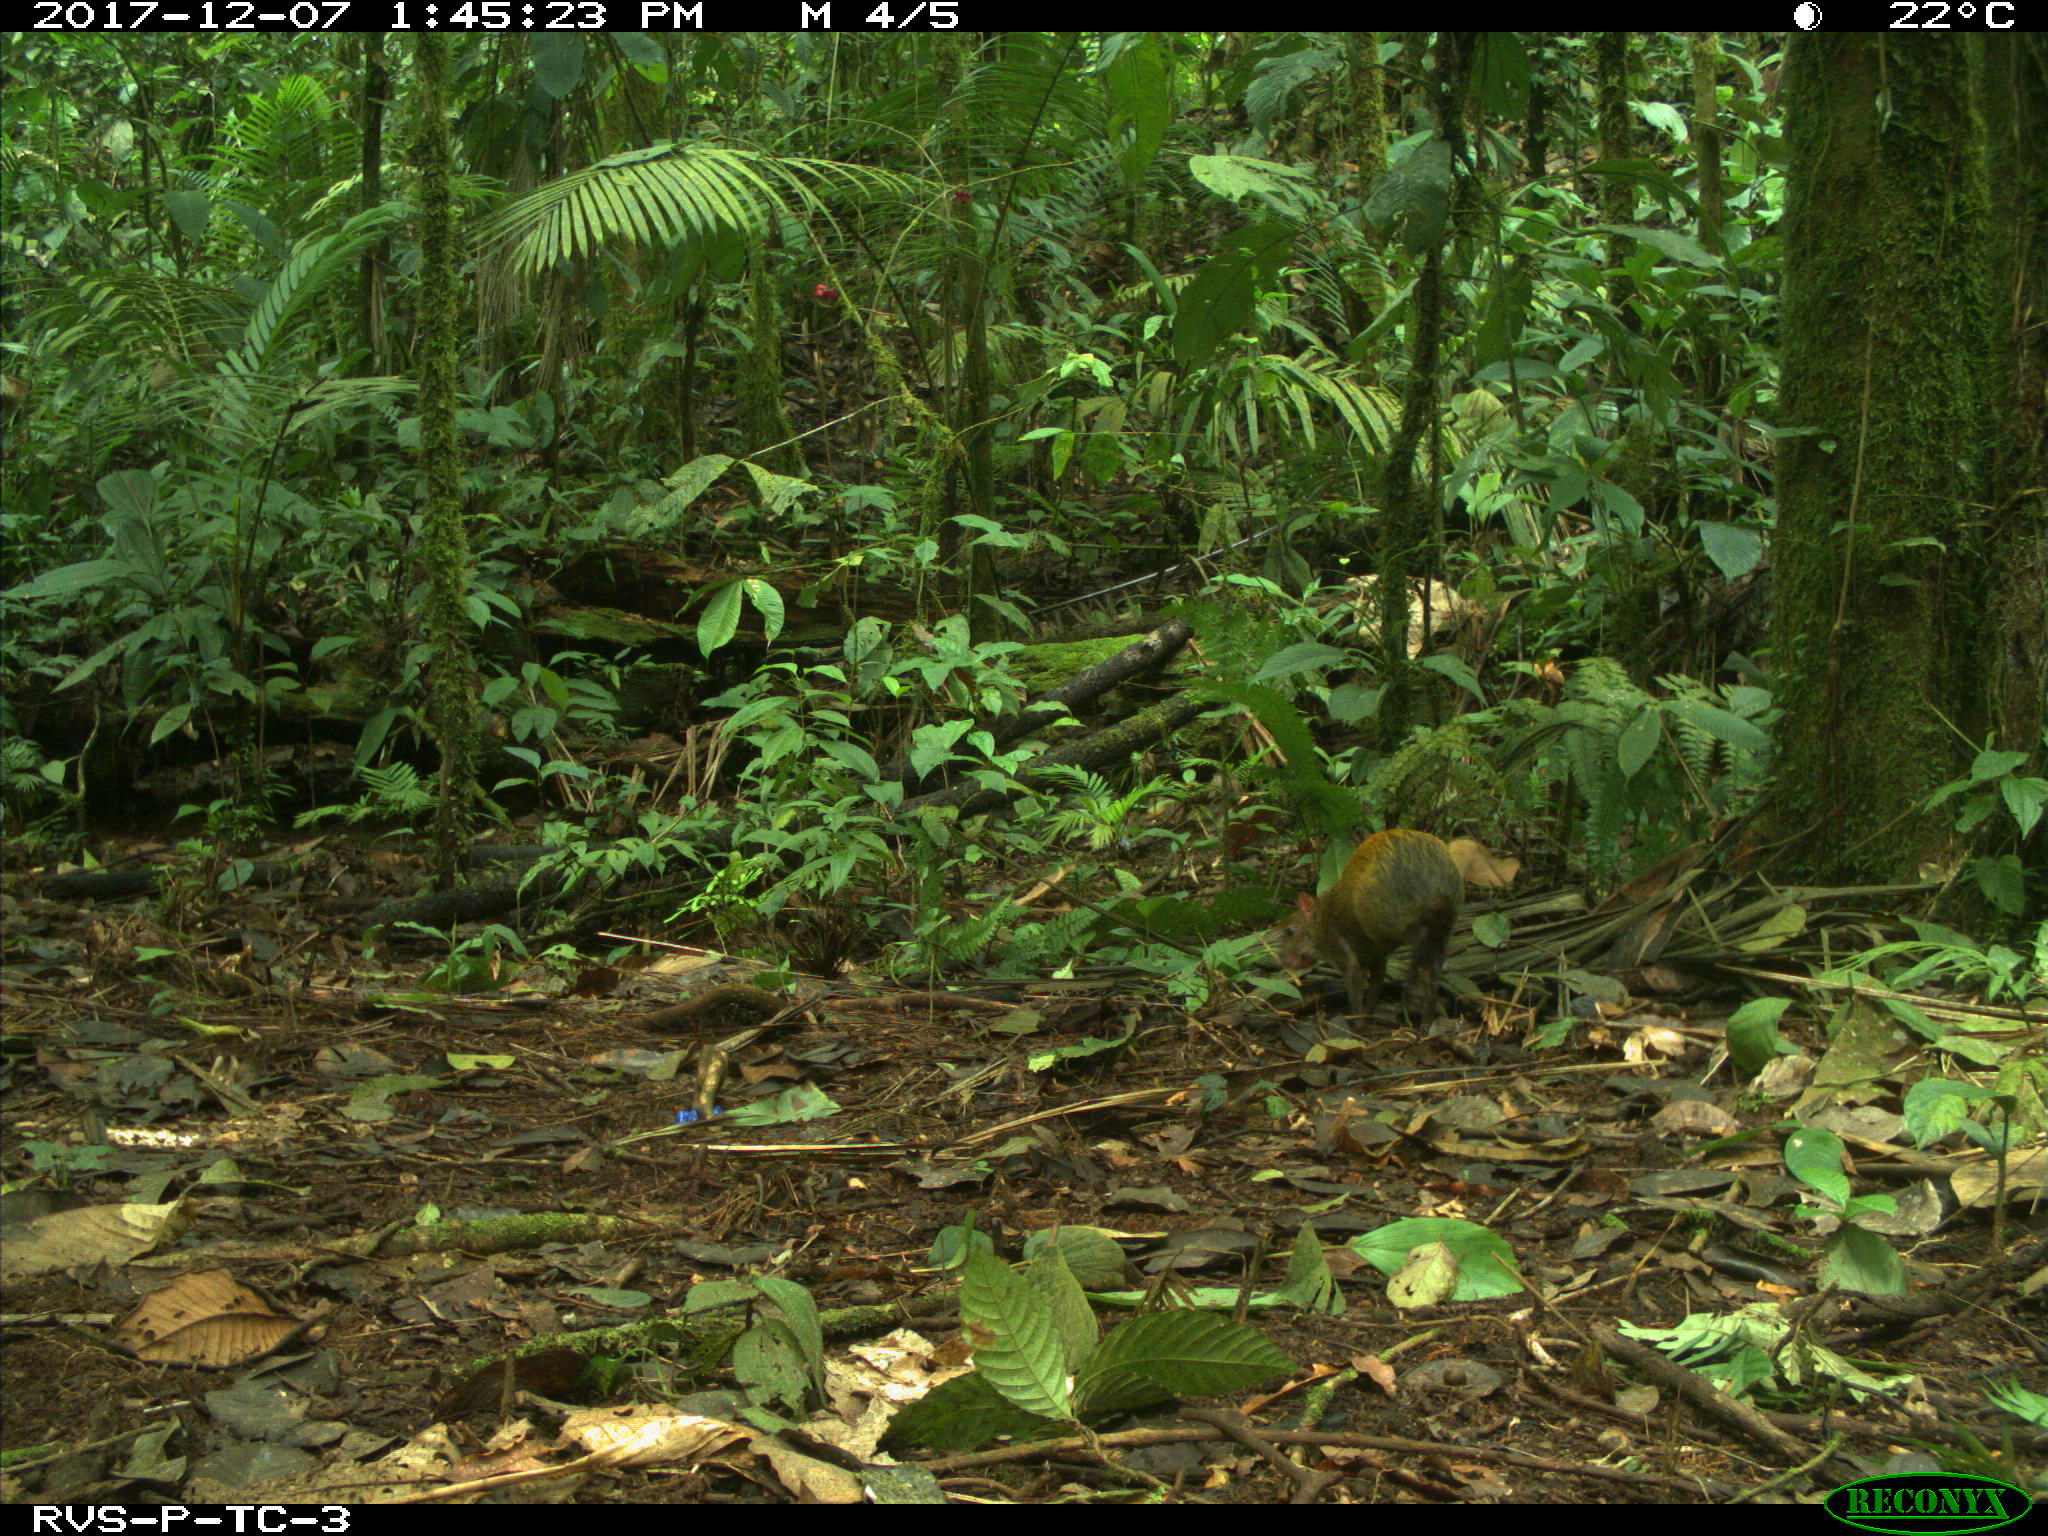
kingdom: Animalia
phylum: Chordata
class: Mammalia
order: Rodentia
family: Dasyproctidae
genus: Dasyprocta
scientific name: Dasyprocta punctata
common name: Central american agouti
